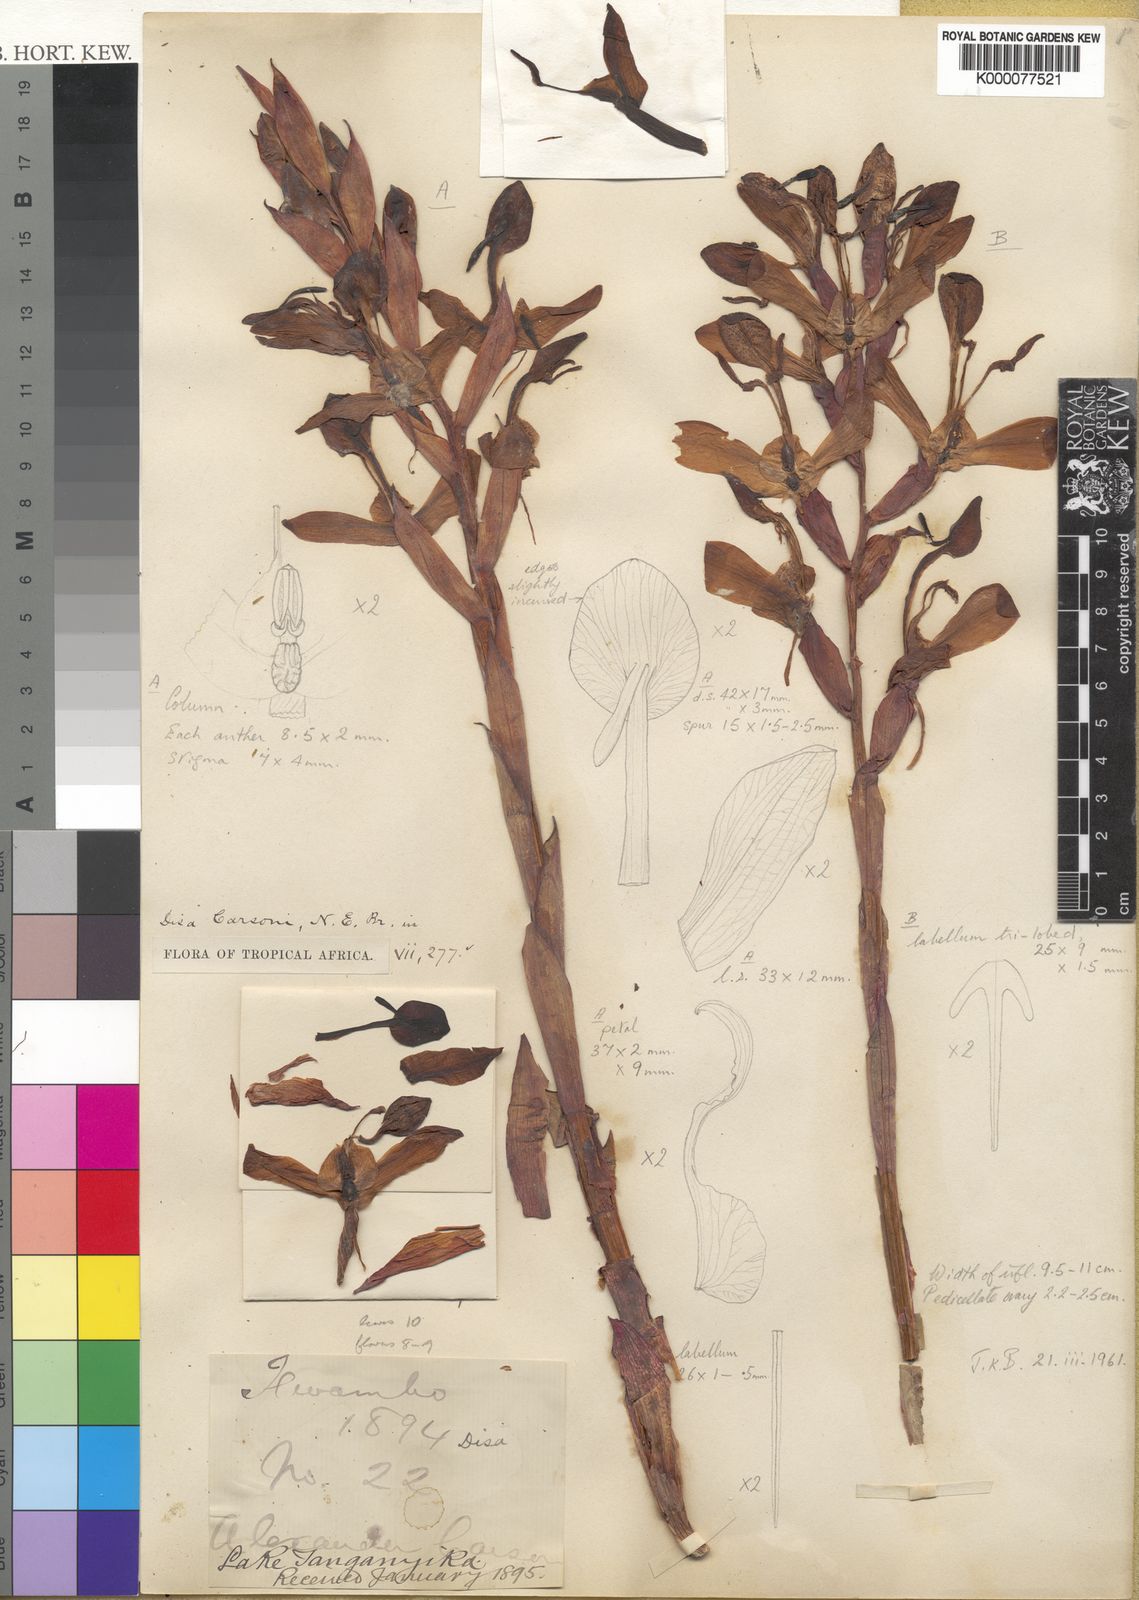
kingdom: Plantae
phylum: Tracheophyta
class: Liliopsida
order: Asparagales
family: Orchidaceae
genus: Disa
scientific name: Disa erubescens
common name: The rose disa
